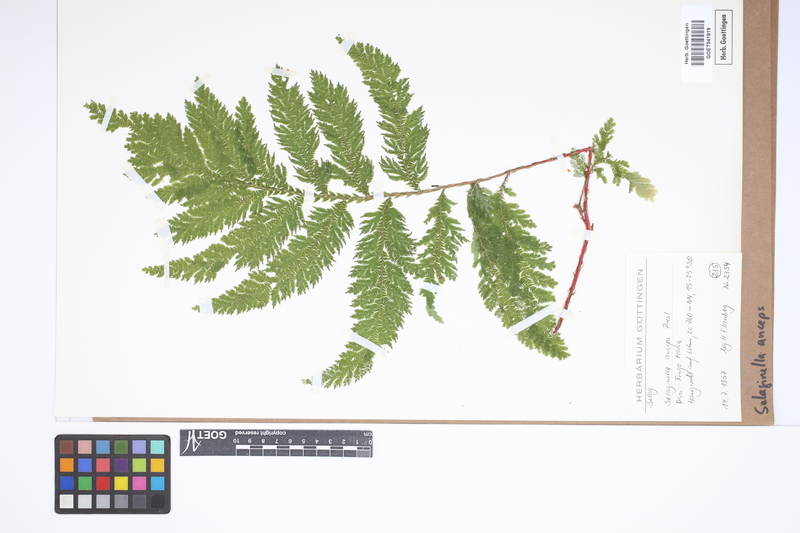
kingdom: Plantae
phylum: Tracheophyta
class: Lycopodiopsida
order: Selaginellales
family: Selaginellaceae
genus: Selaginella
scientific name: Selaginella anceps
